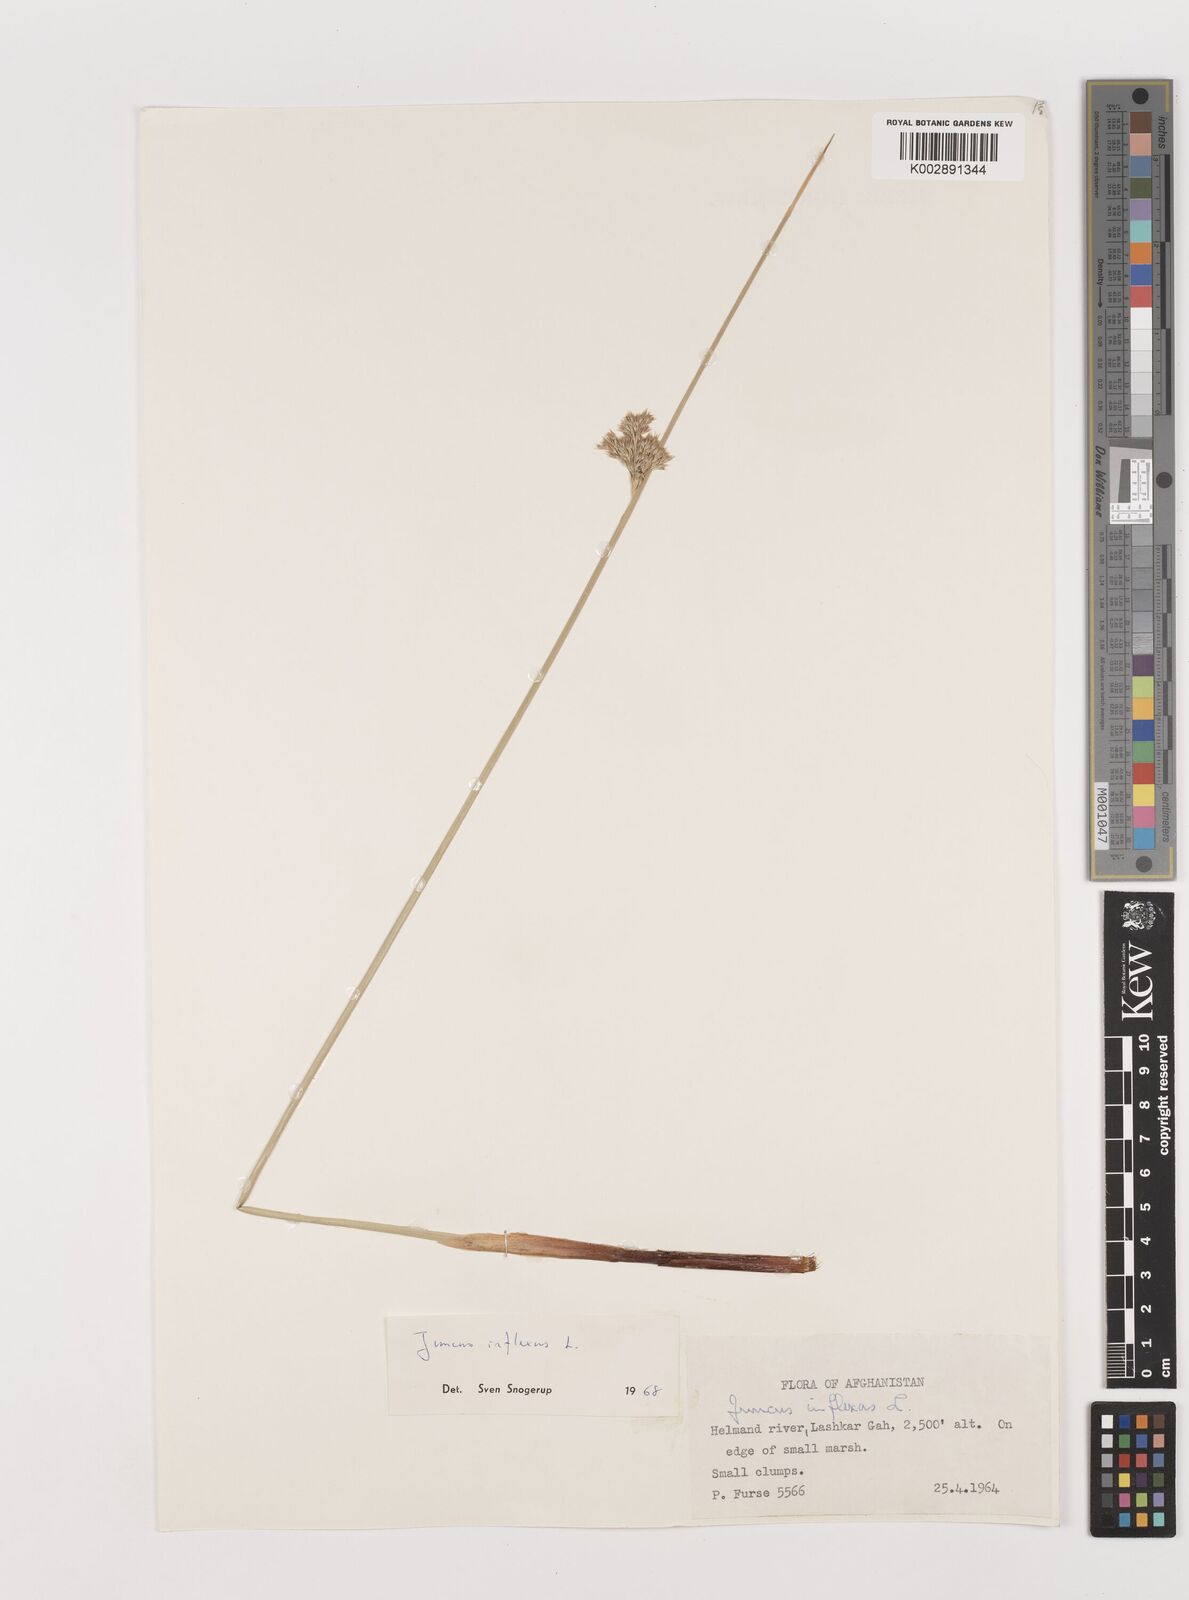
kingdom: Plantae
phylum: Tracheophyta
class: Liliopsida
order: Poales
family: Juncaceae
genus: Juncus
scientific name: Juncus inflexus
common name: Hard rush
